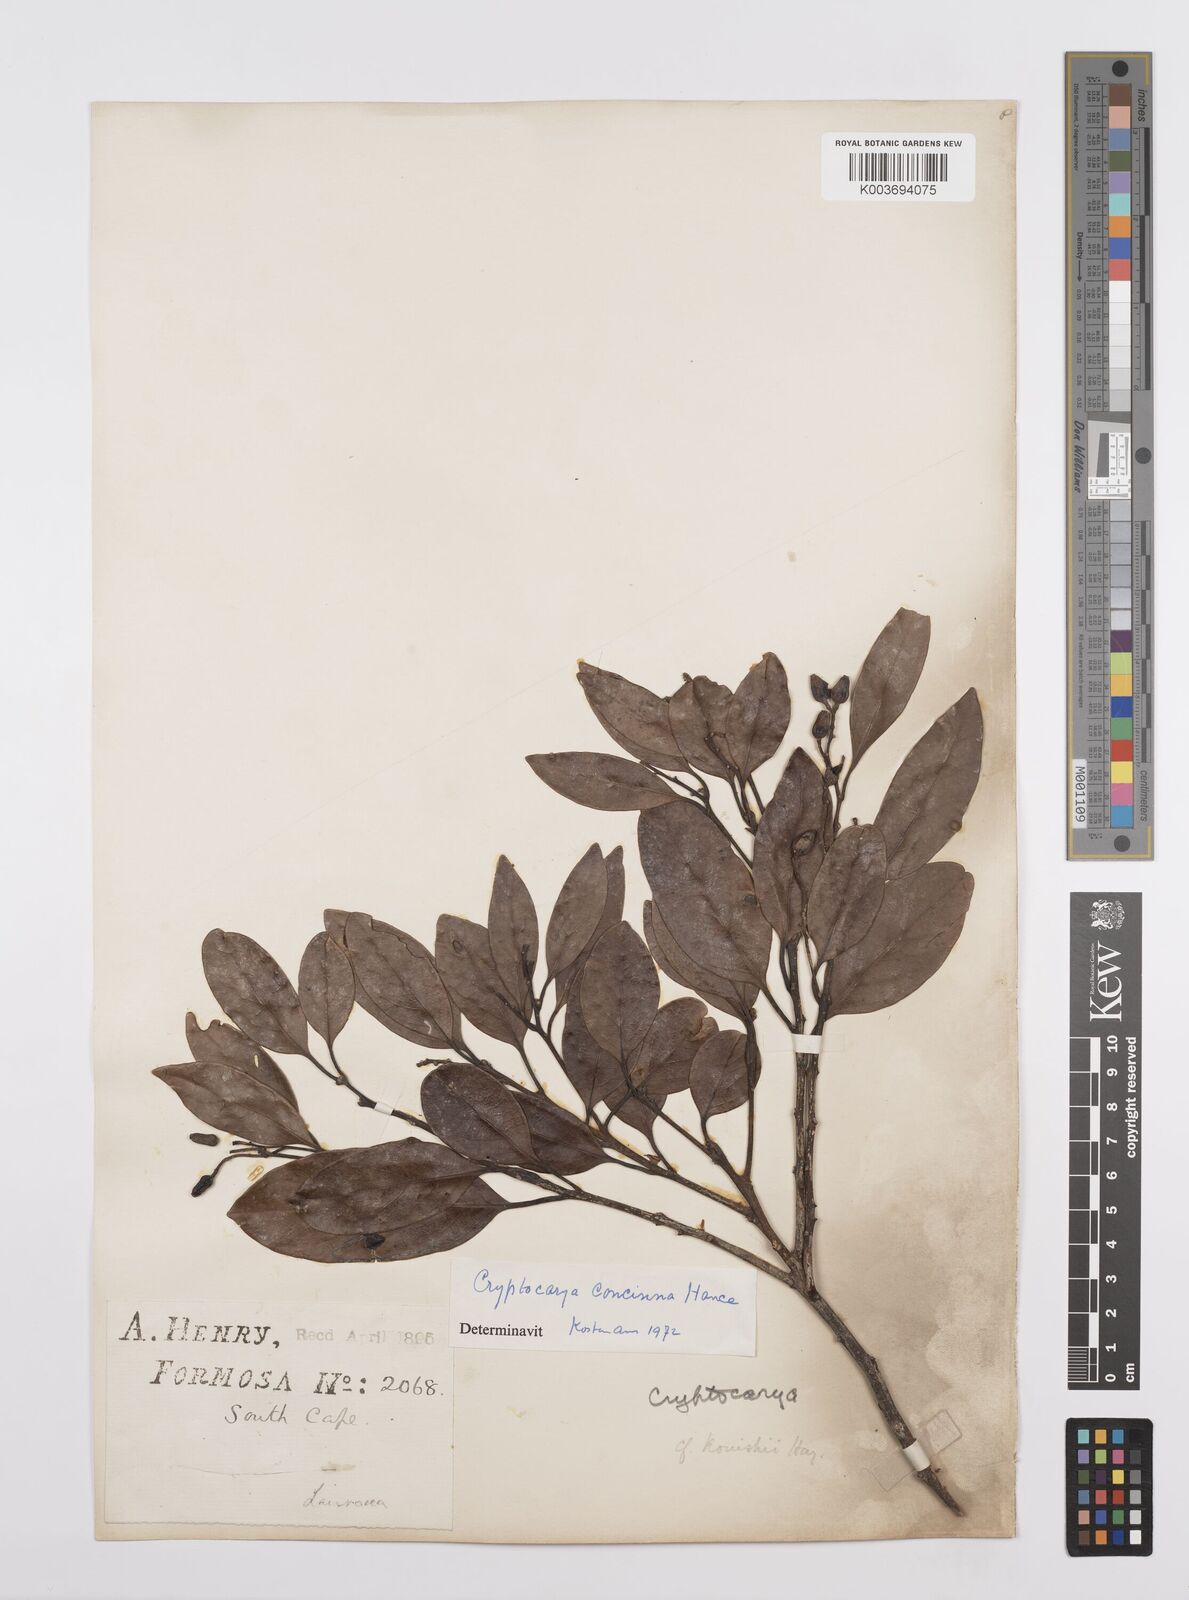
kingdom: Plantae
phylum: Tracheophyta
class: Magnoliopsida
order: Laurales
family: Lauraceae
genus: Cryptocarya
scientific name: Cryptocarya concinna
